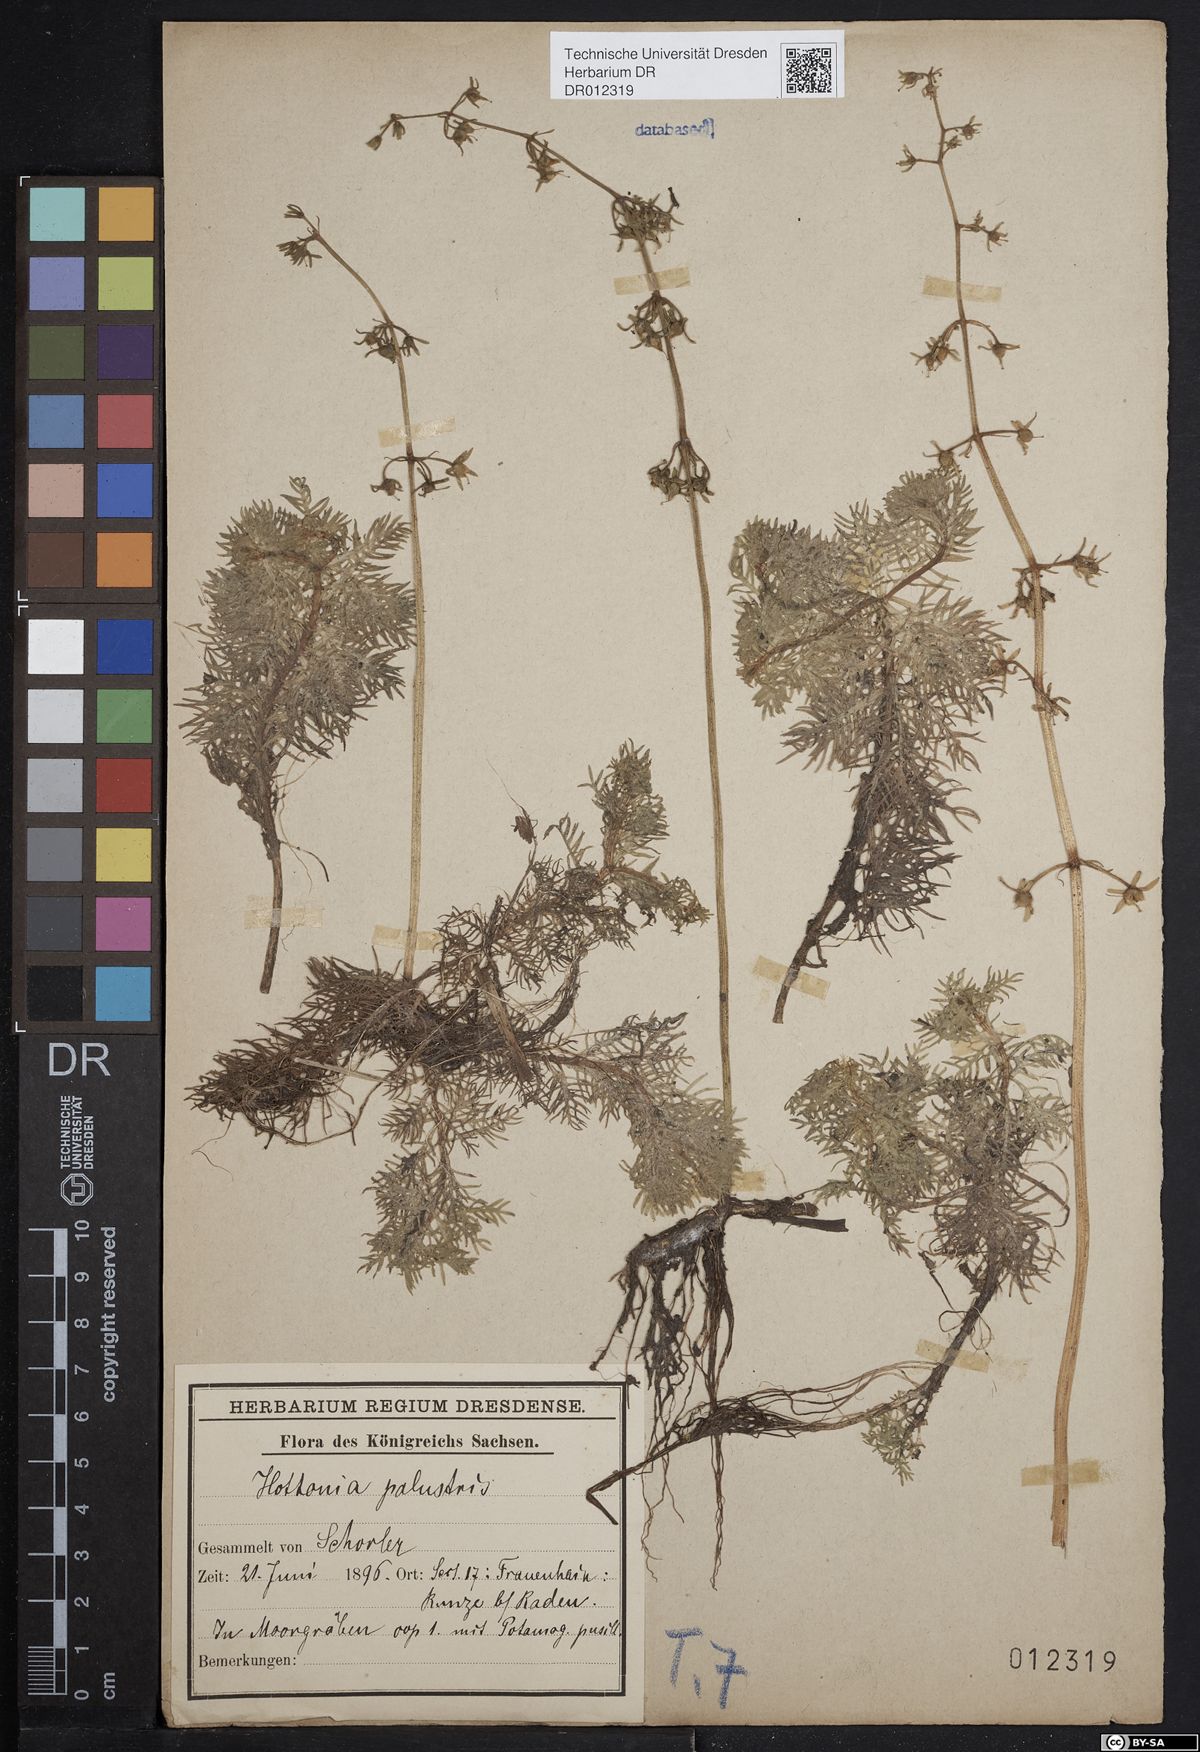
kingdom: Plantae
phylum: Tracheophyta
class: Magnoliopsida
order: Ericales
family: Primulaceae
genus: Hottonia
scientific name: Hottonia palustris
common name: Water-violet
